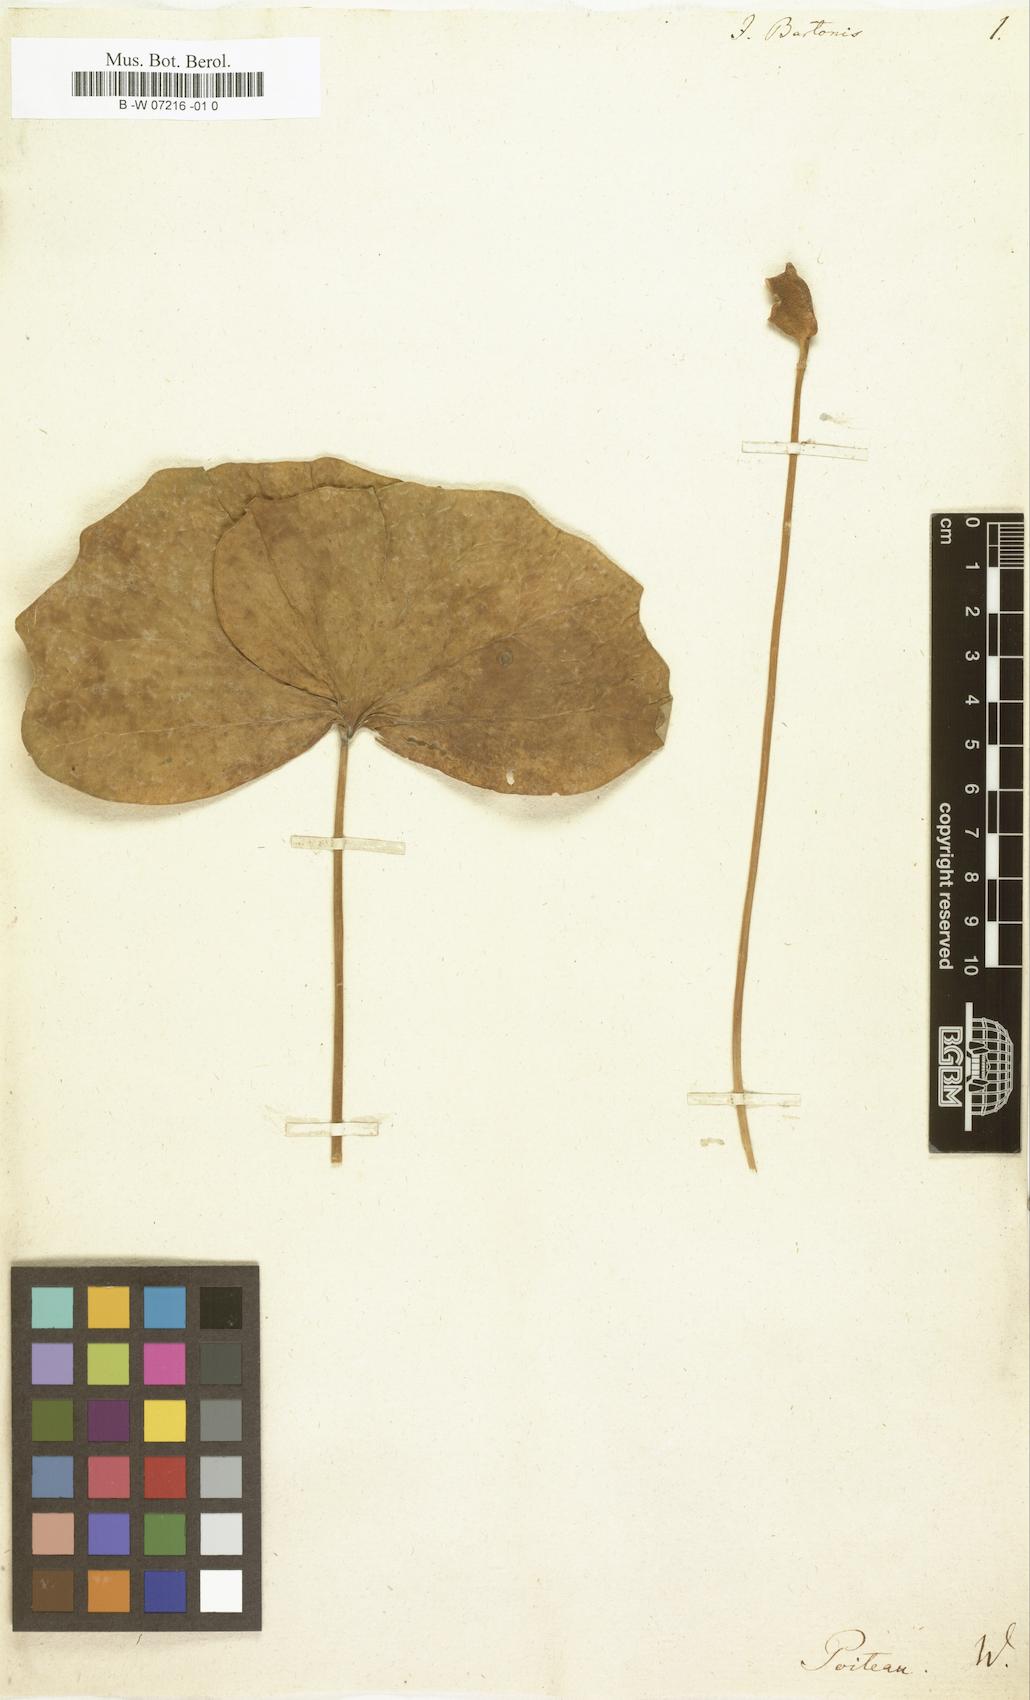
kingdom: Plantae
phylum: Tracheophyta
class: Magnoliopsida
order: Ranunculales
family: Berberidaceae
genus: Jeffersonia
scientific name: Jeffersonia diphylla
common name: Rheumatism-root
